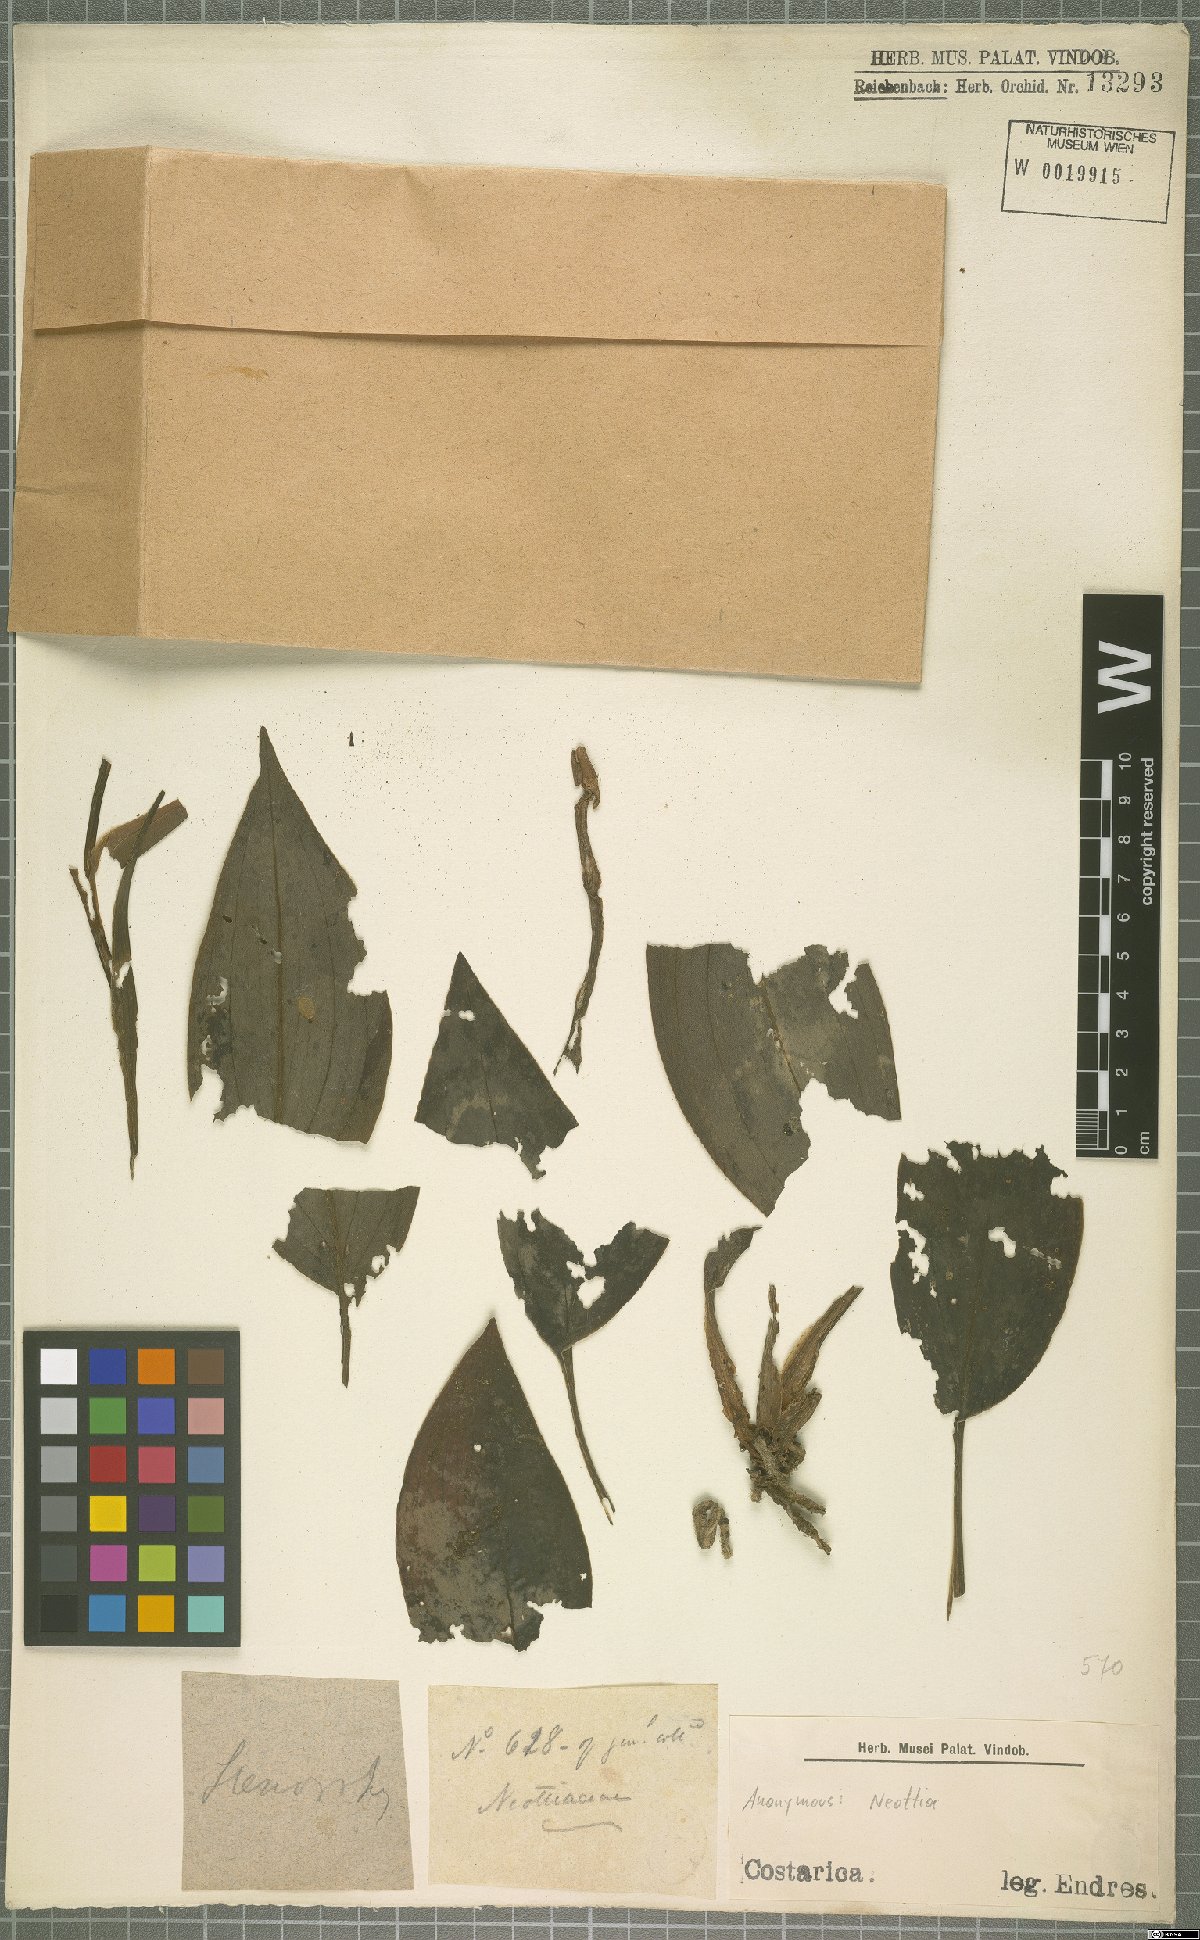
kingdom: Plantae
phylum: Tracheophyta
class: Liliopsida
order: Asparagales
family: Orchidaceae
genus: Neottia
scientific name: Neottia
